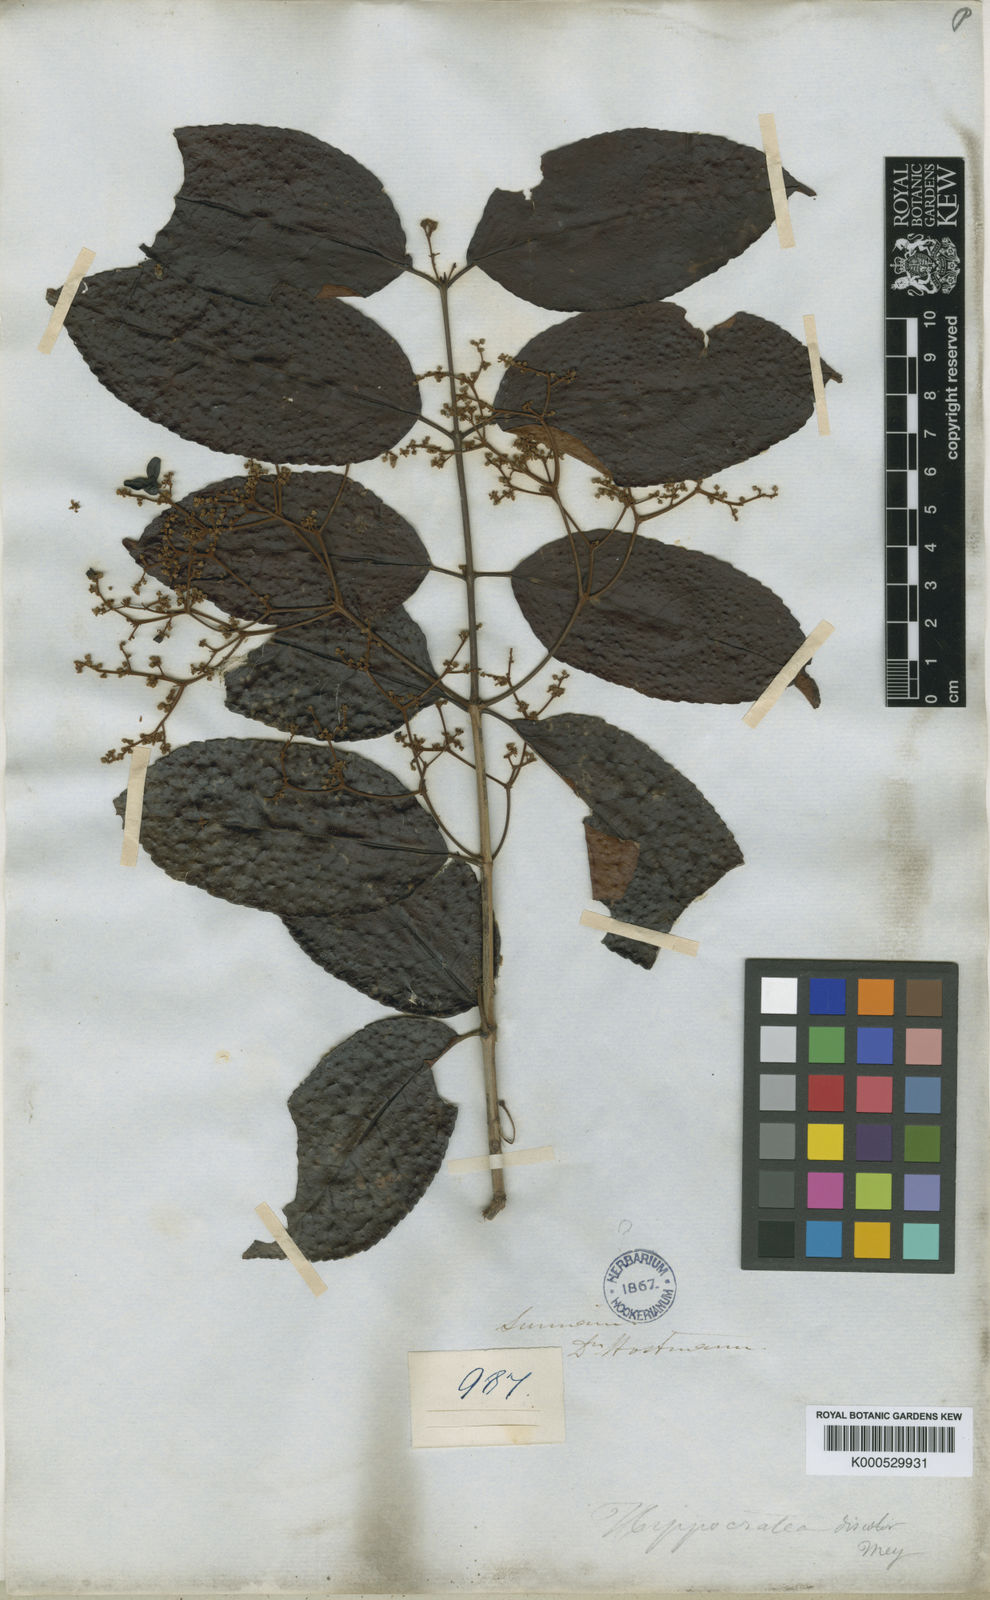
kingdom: Plantae
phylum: Tracheophyta
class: Magnoliopsida
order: Celastrales
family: Celastraceae
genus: Hippocratea
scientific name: Hippocratea volubilis
